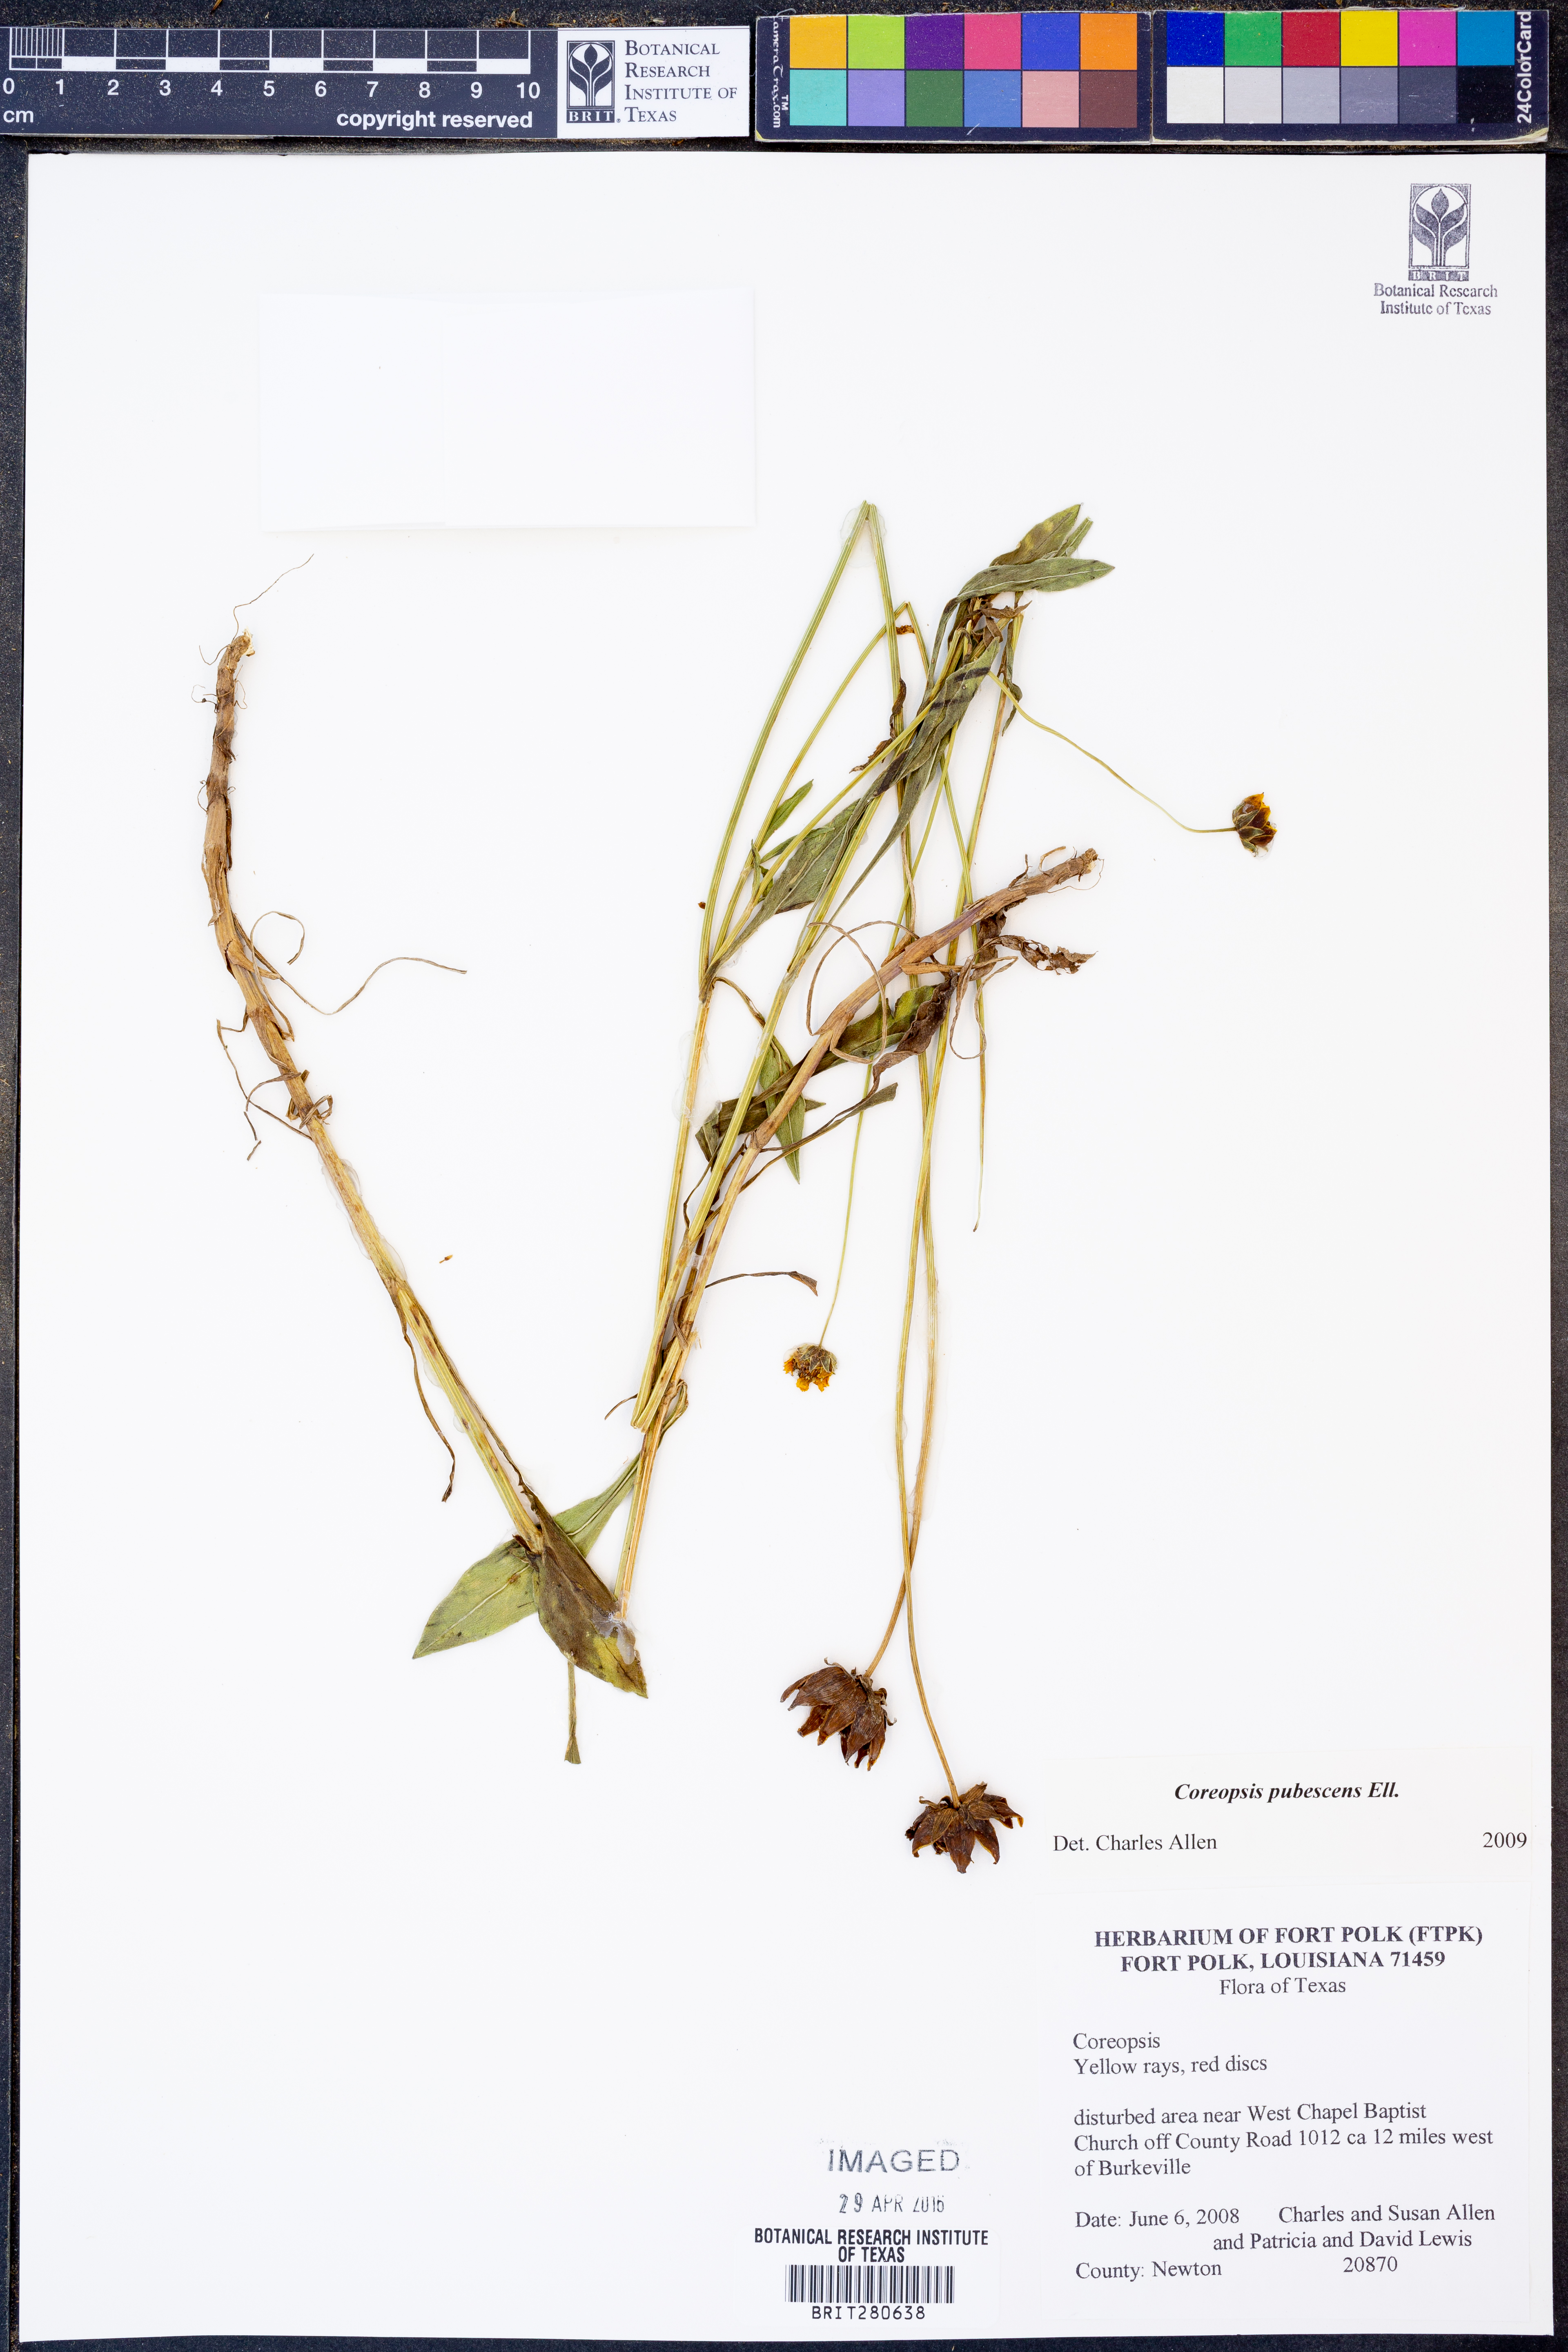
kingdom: Plantae
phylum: Tracheophyta
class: Magnoliopsida
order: Asterales
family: Asteraceae
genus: Coreopsis
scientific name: Coreopsis pubescens
